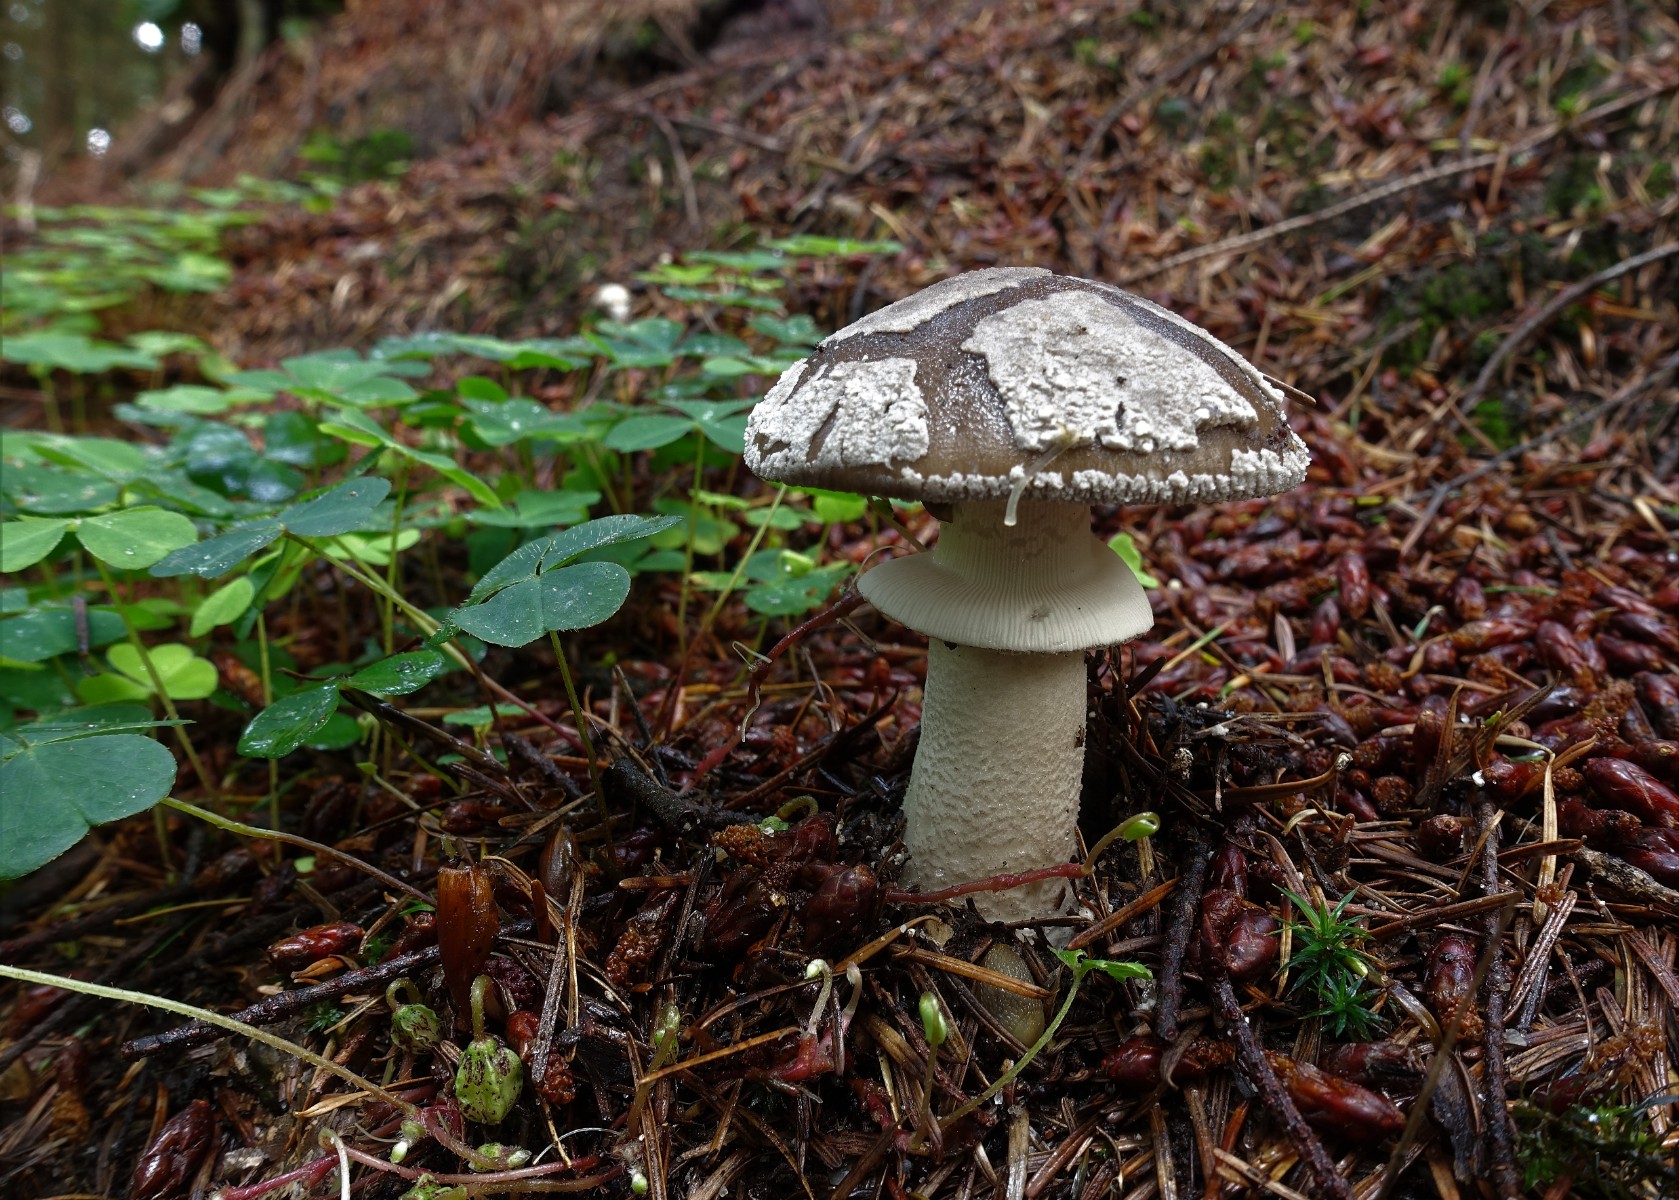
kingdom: Fungi
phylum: Basidiomycota
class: Agaricomycetes
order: Agaricales
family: Amanitaceae
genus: Amanita
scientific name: Amanita
